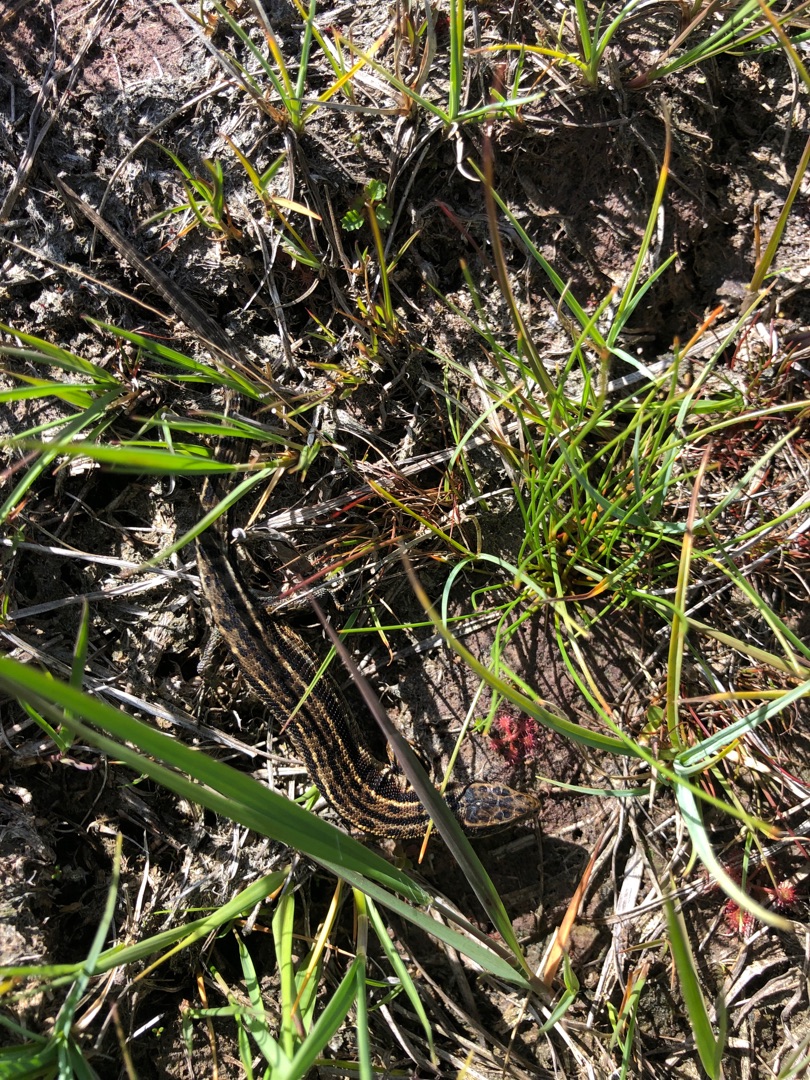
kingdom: Animalia
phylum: Chordata
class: Squamata
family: Lacertidae
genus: Zootoca
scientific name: Zootoca vivipara
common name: Skovfirben
